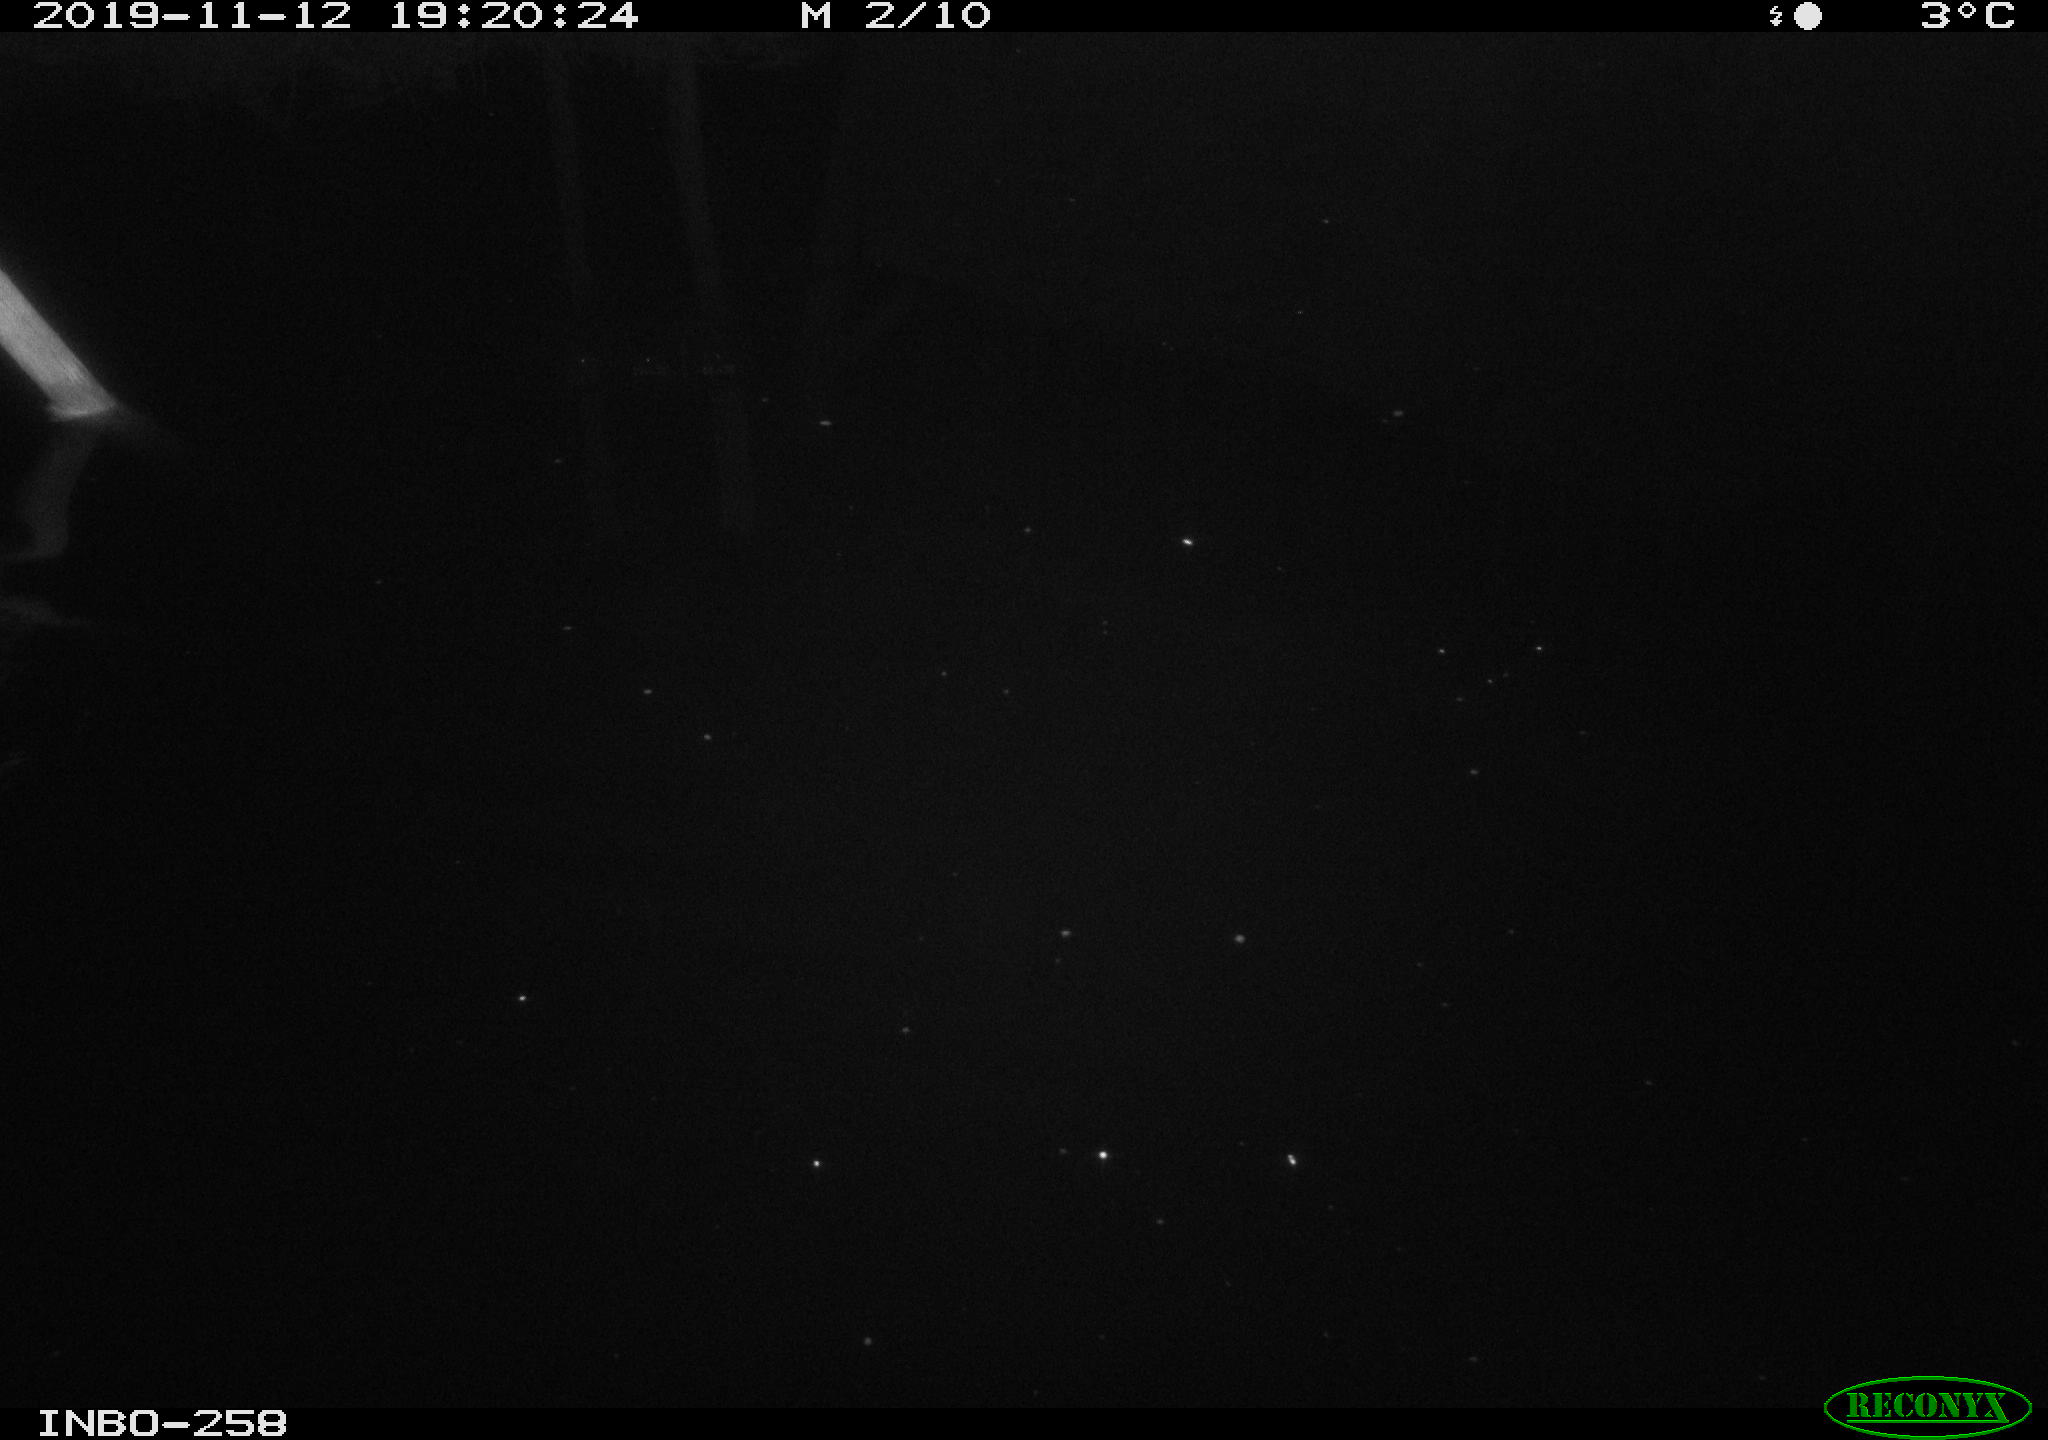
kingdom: Animalia
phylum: Chordata
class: Mammalia
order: Rodentia
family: Muridae
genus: Rattus
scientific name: Rattus norvegicus
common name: Brown rat
